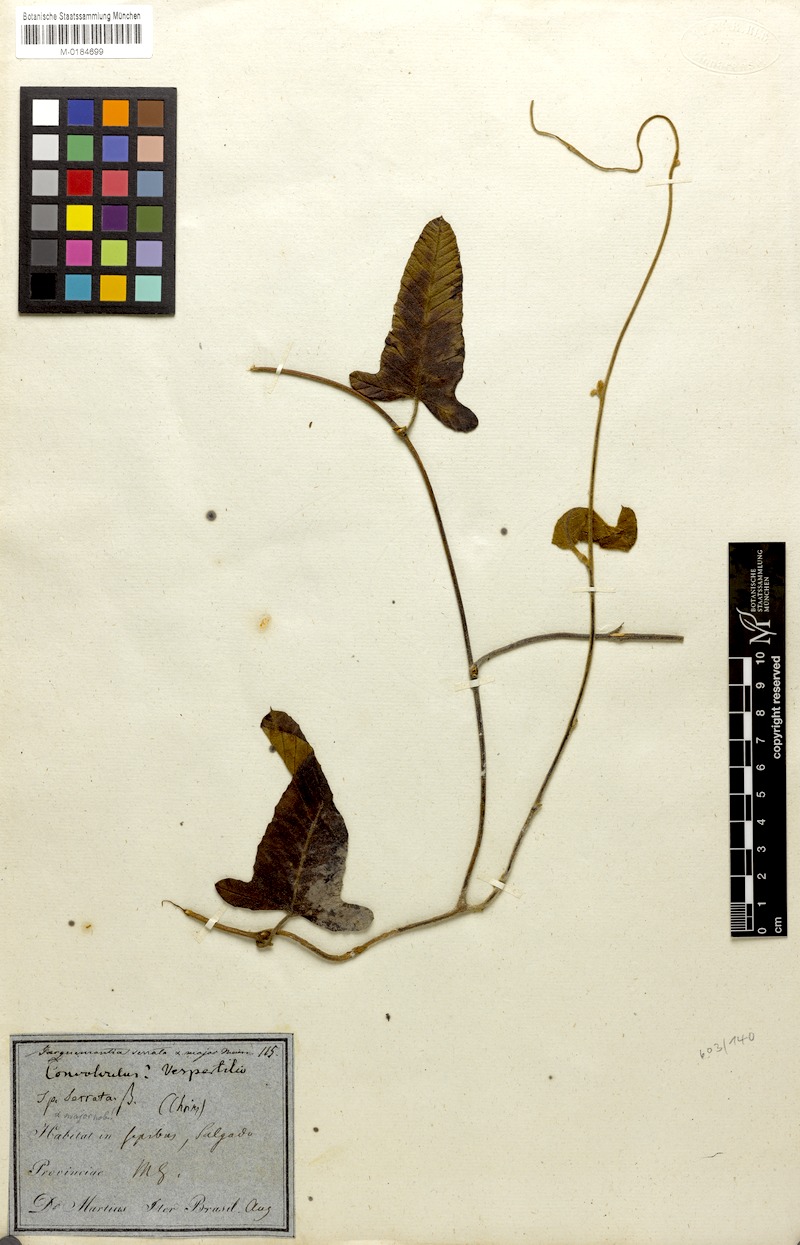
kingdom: Plantae
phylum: Tracheophyta
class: Magnoliopsida
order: Solanales
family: Convolvulaceae
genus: Daustinia
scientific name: Daustinia montana
